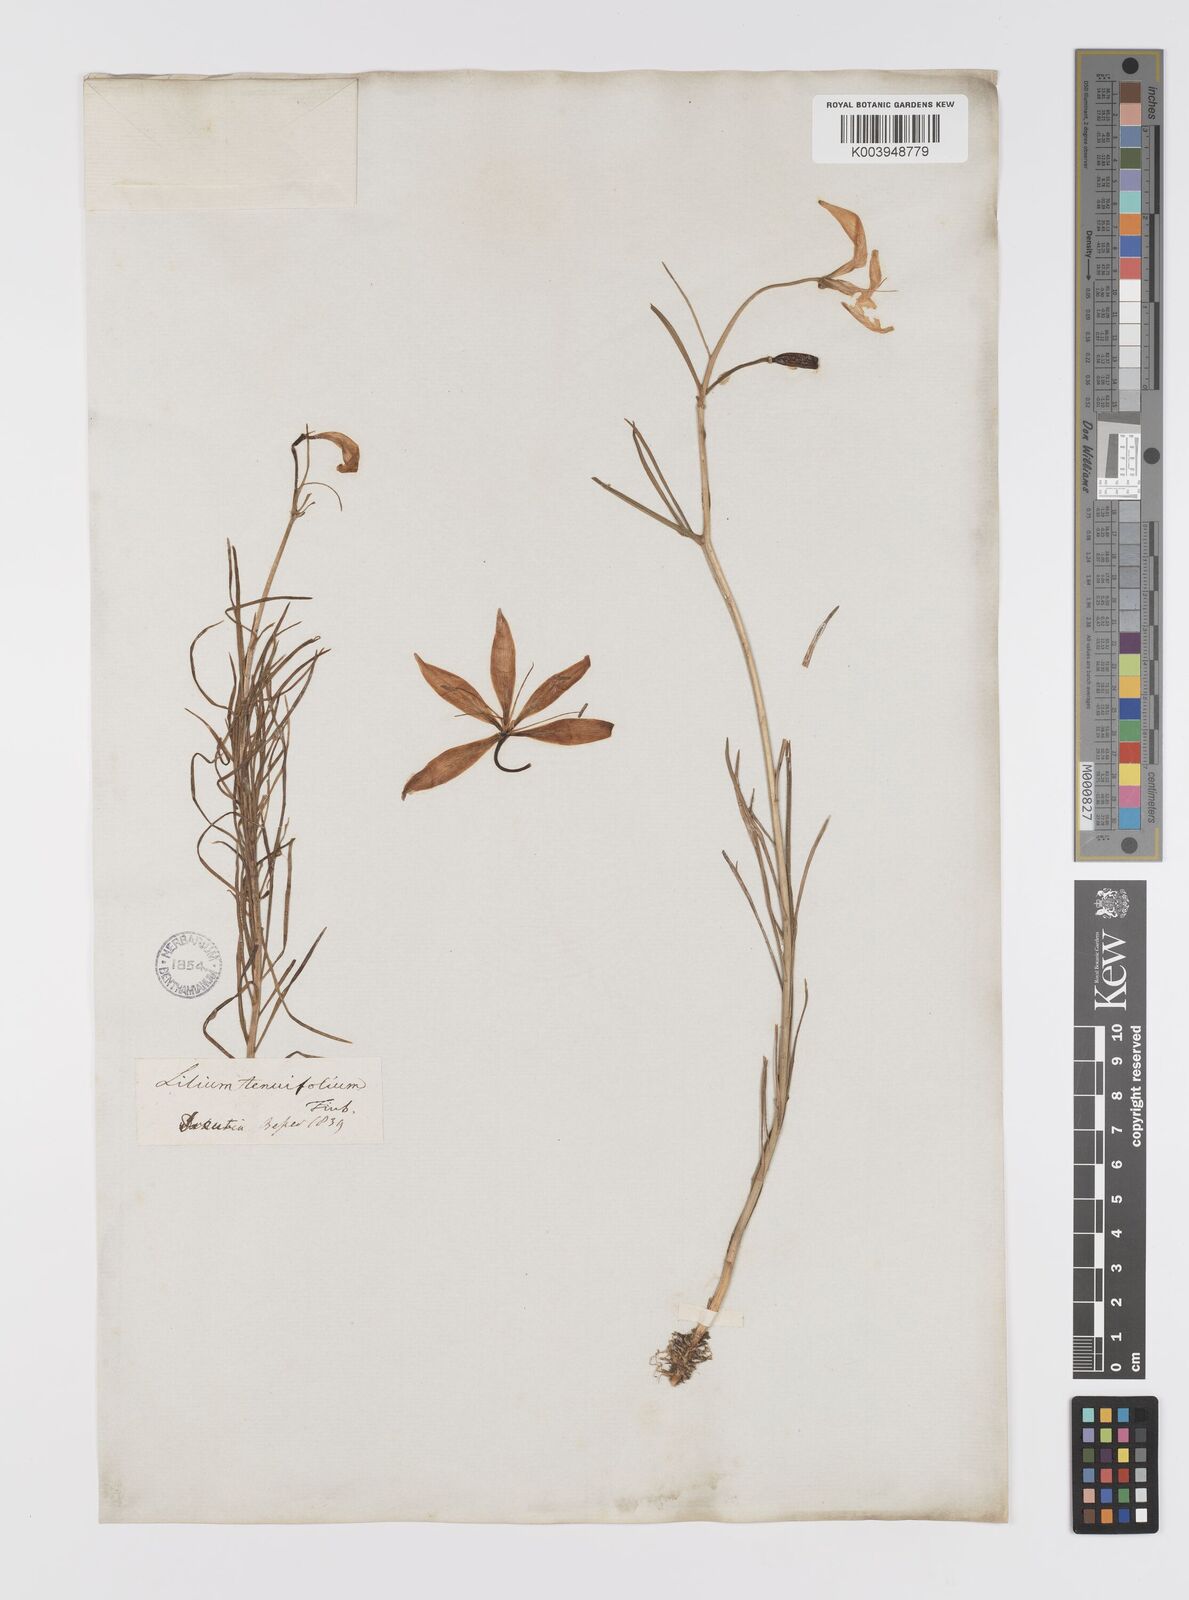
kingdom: Plantae
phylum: Tracheophyta
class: Liliopsida
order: Liliales
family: Liliaceae
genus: Lilium
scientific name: Lilium pumilum
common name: Coral lily
